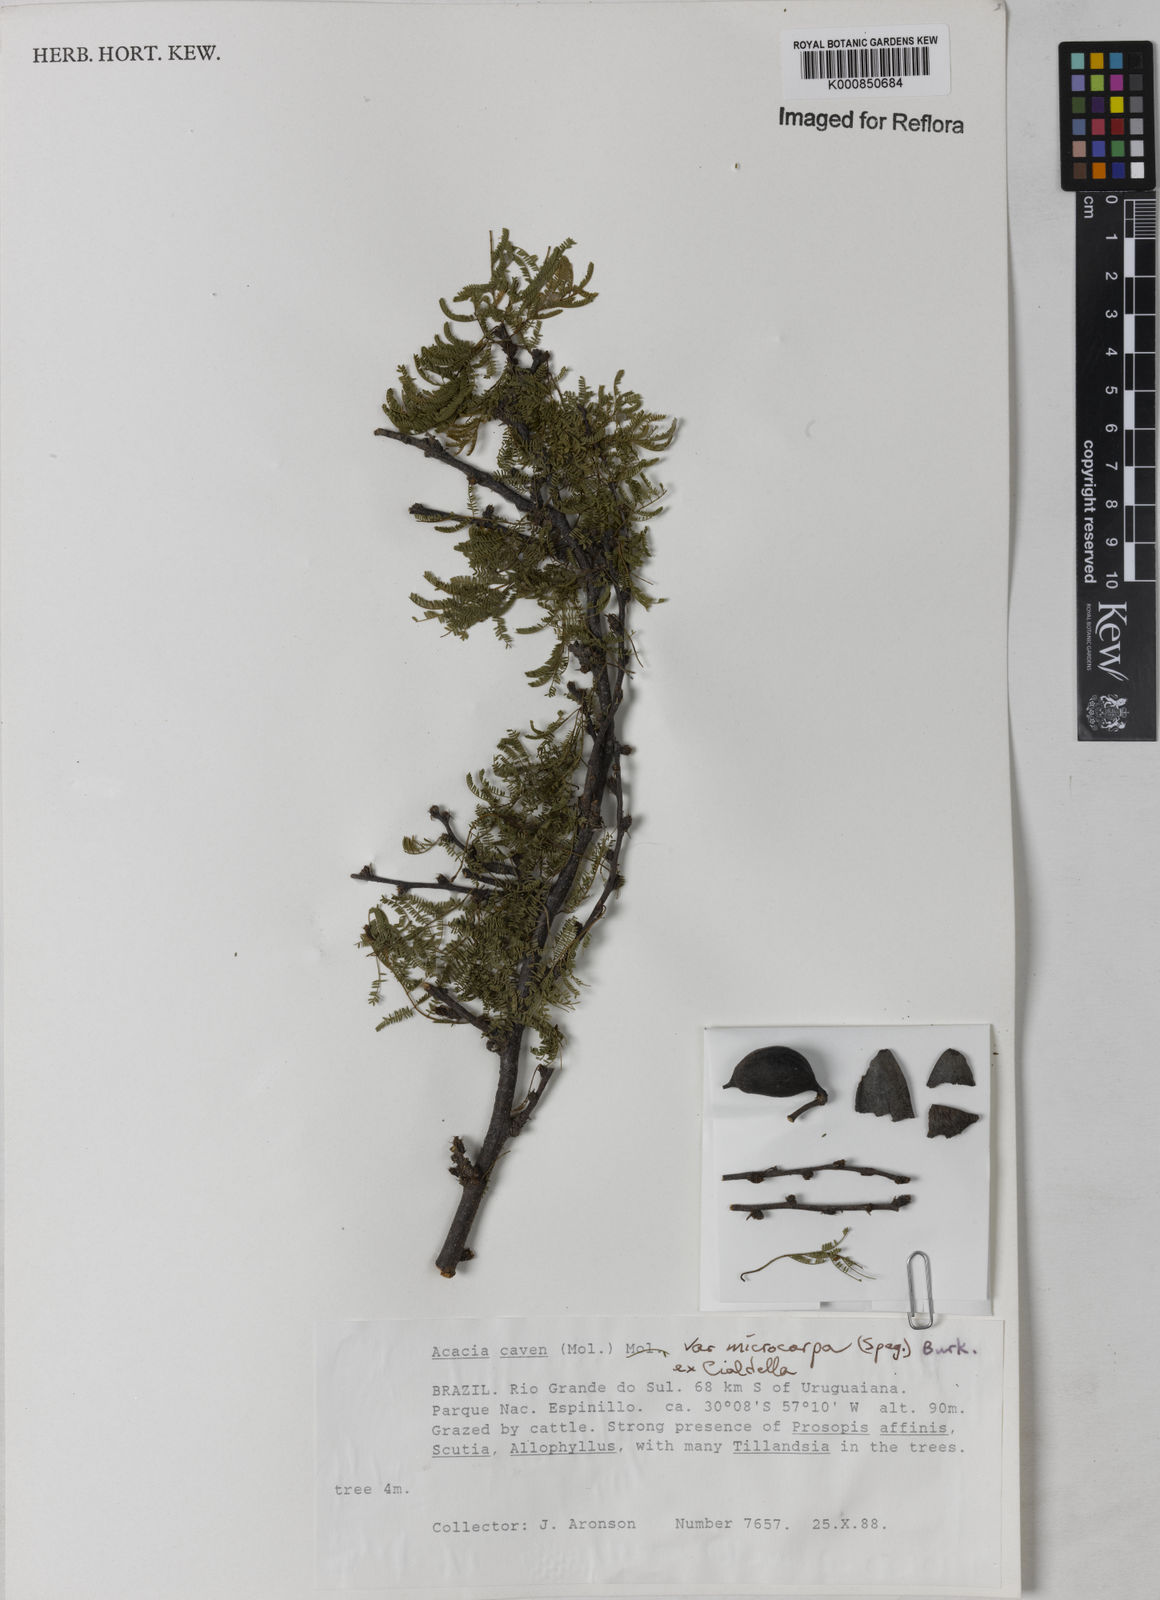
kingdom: Plantae
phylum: Tracheophyta
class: Magnoliopsida
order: Fabales
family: Fabaceae
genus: Vachellia
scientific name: Vachellia caven
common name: Roman cassie
